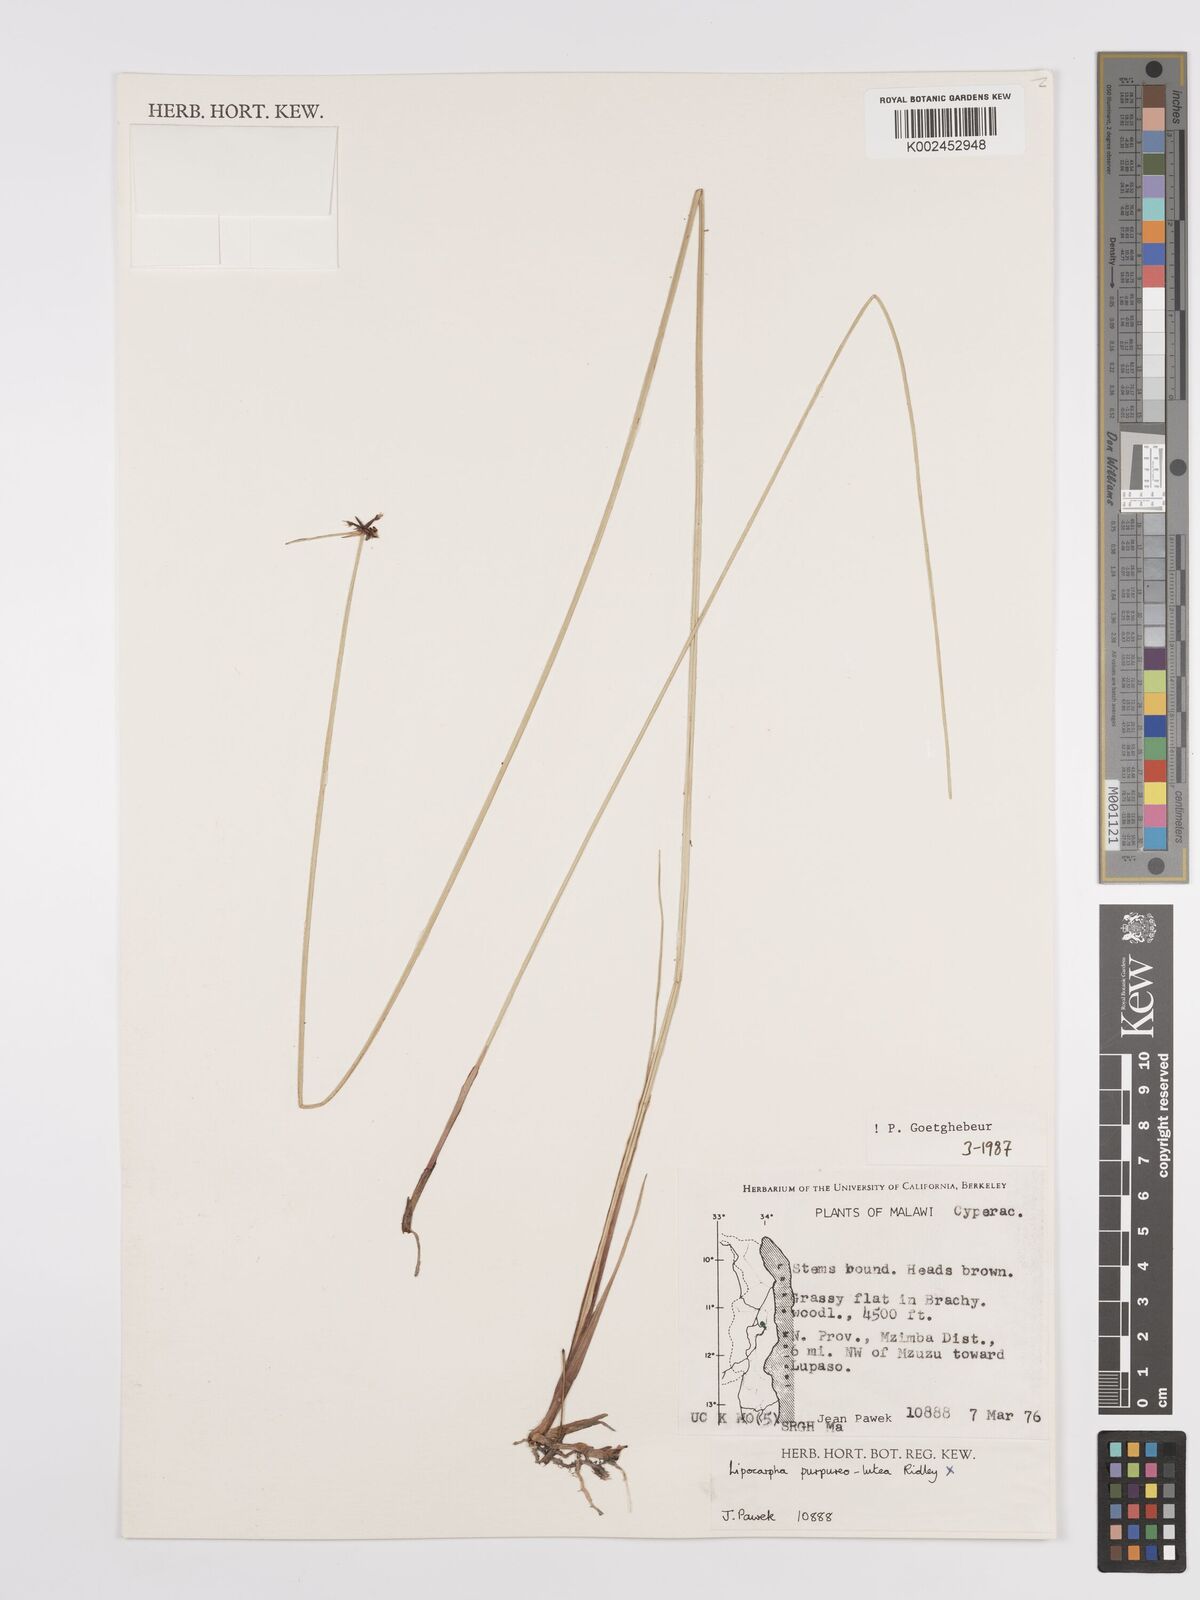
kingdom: Plantae
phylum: Tracheophyta
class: Liliopsida
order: Poales
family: Cyperaceae
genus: Cyperus
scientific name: Cyperus albiceps
